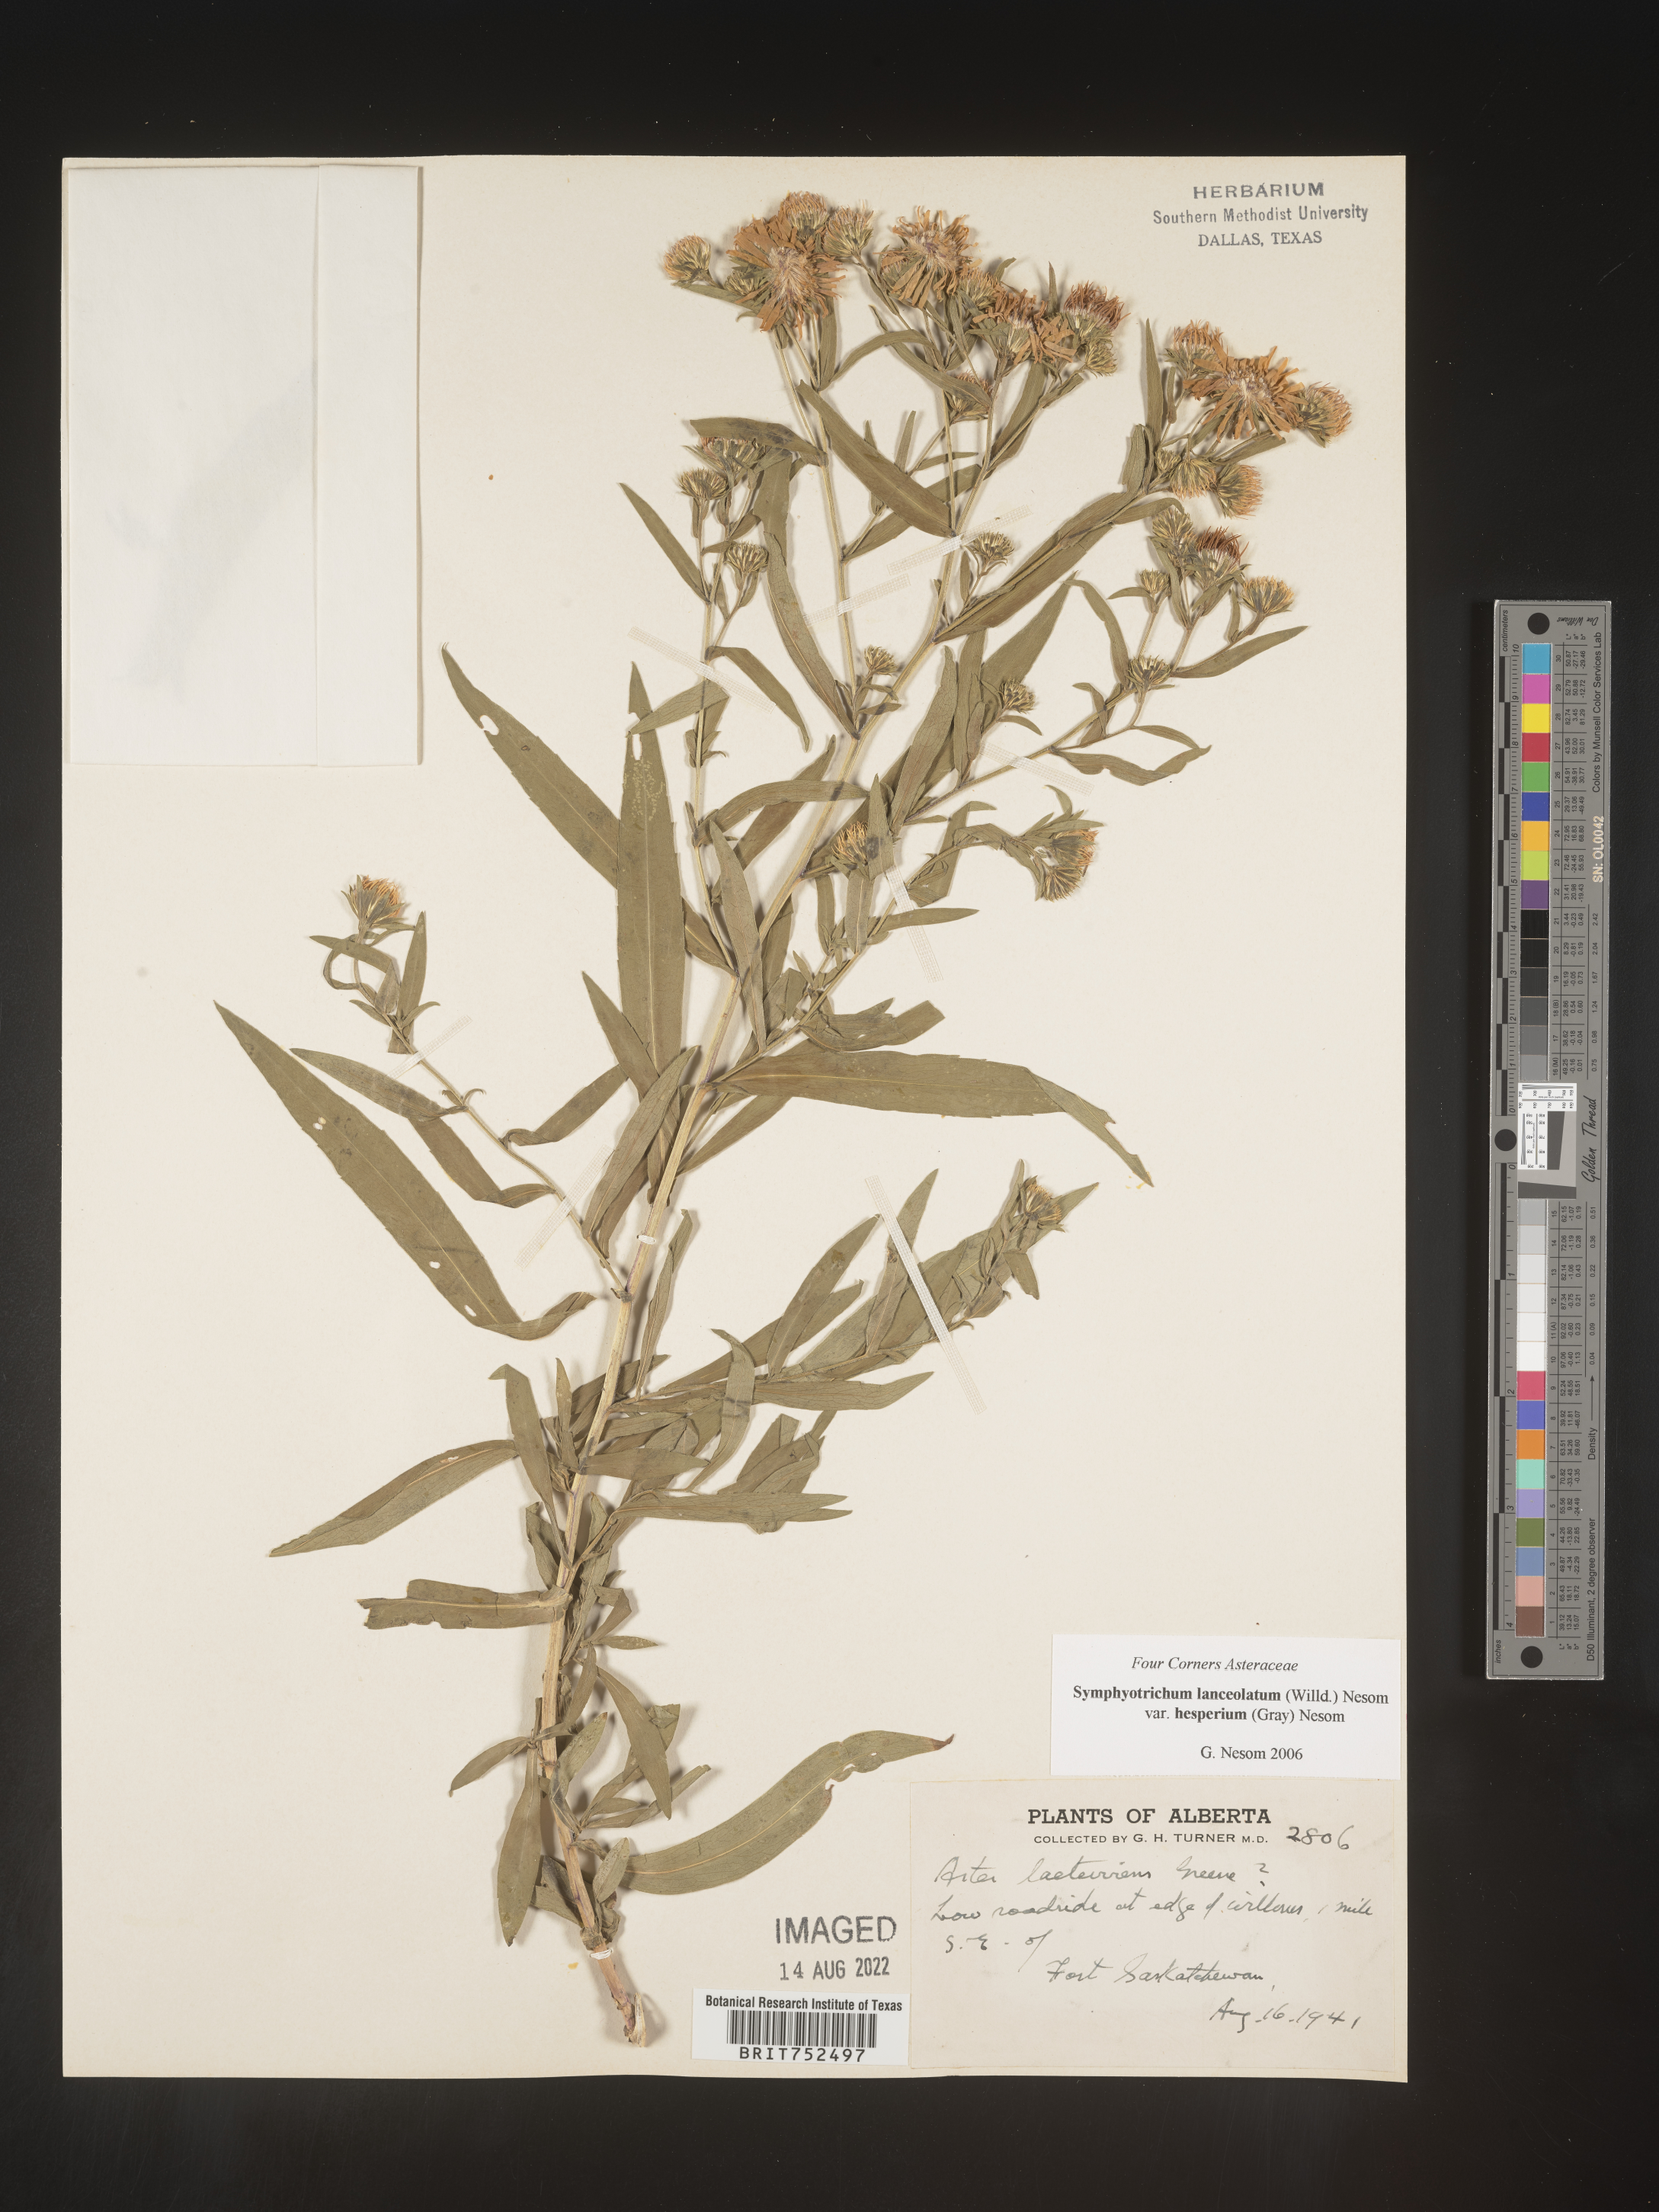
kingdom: Plantae
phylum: Tracheophyta
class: Magnoliopsida
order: Asterales
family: Asteraceae
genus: Symphyotrichum
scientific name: Symphyotrichum lanceolatum
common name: Panicled aster
